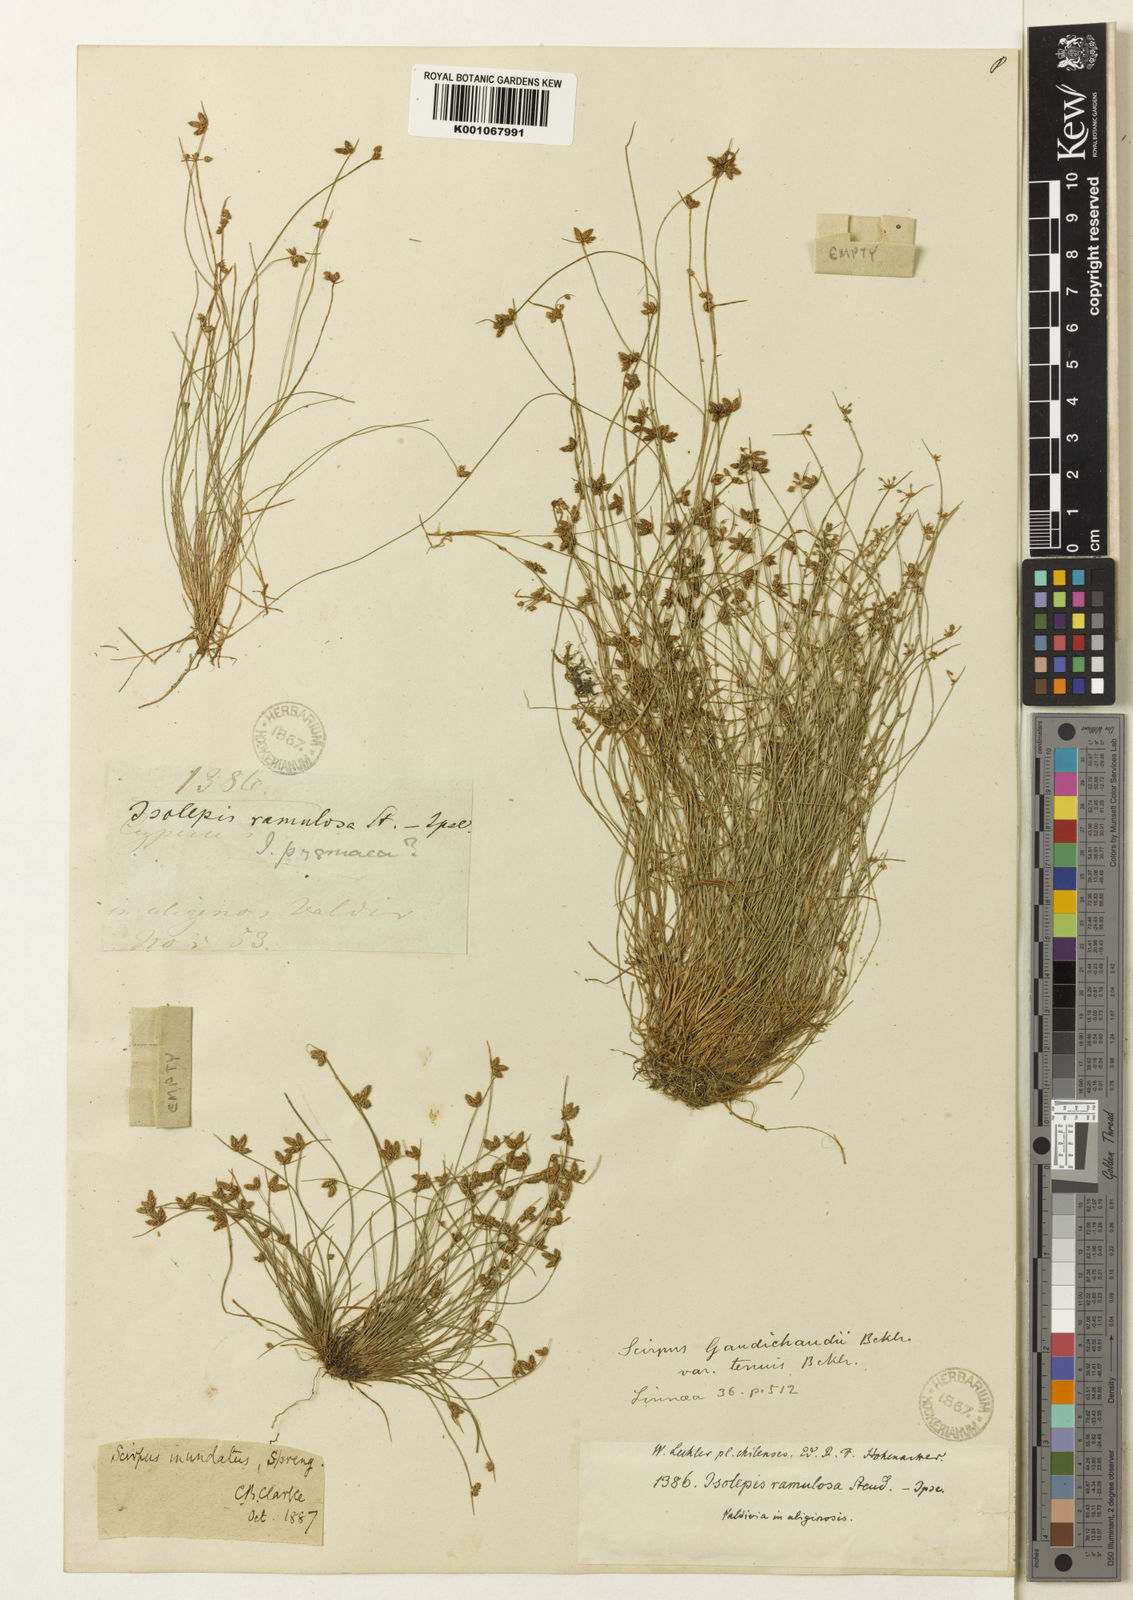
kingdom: Plantae
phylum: Tracheophyta
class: Liliopsida
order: Poales
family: Cyperaceae
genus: Isolepis
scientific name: Isolepis inundata
